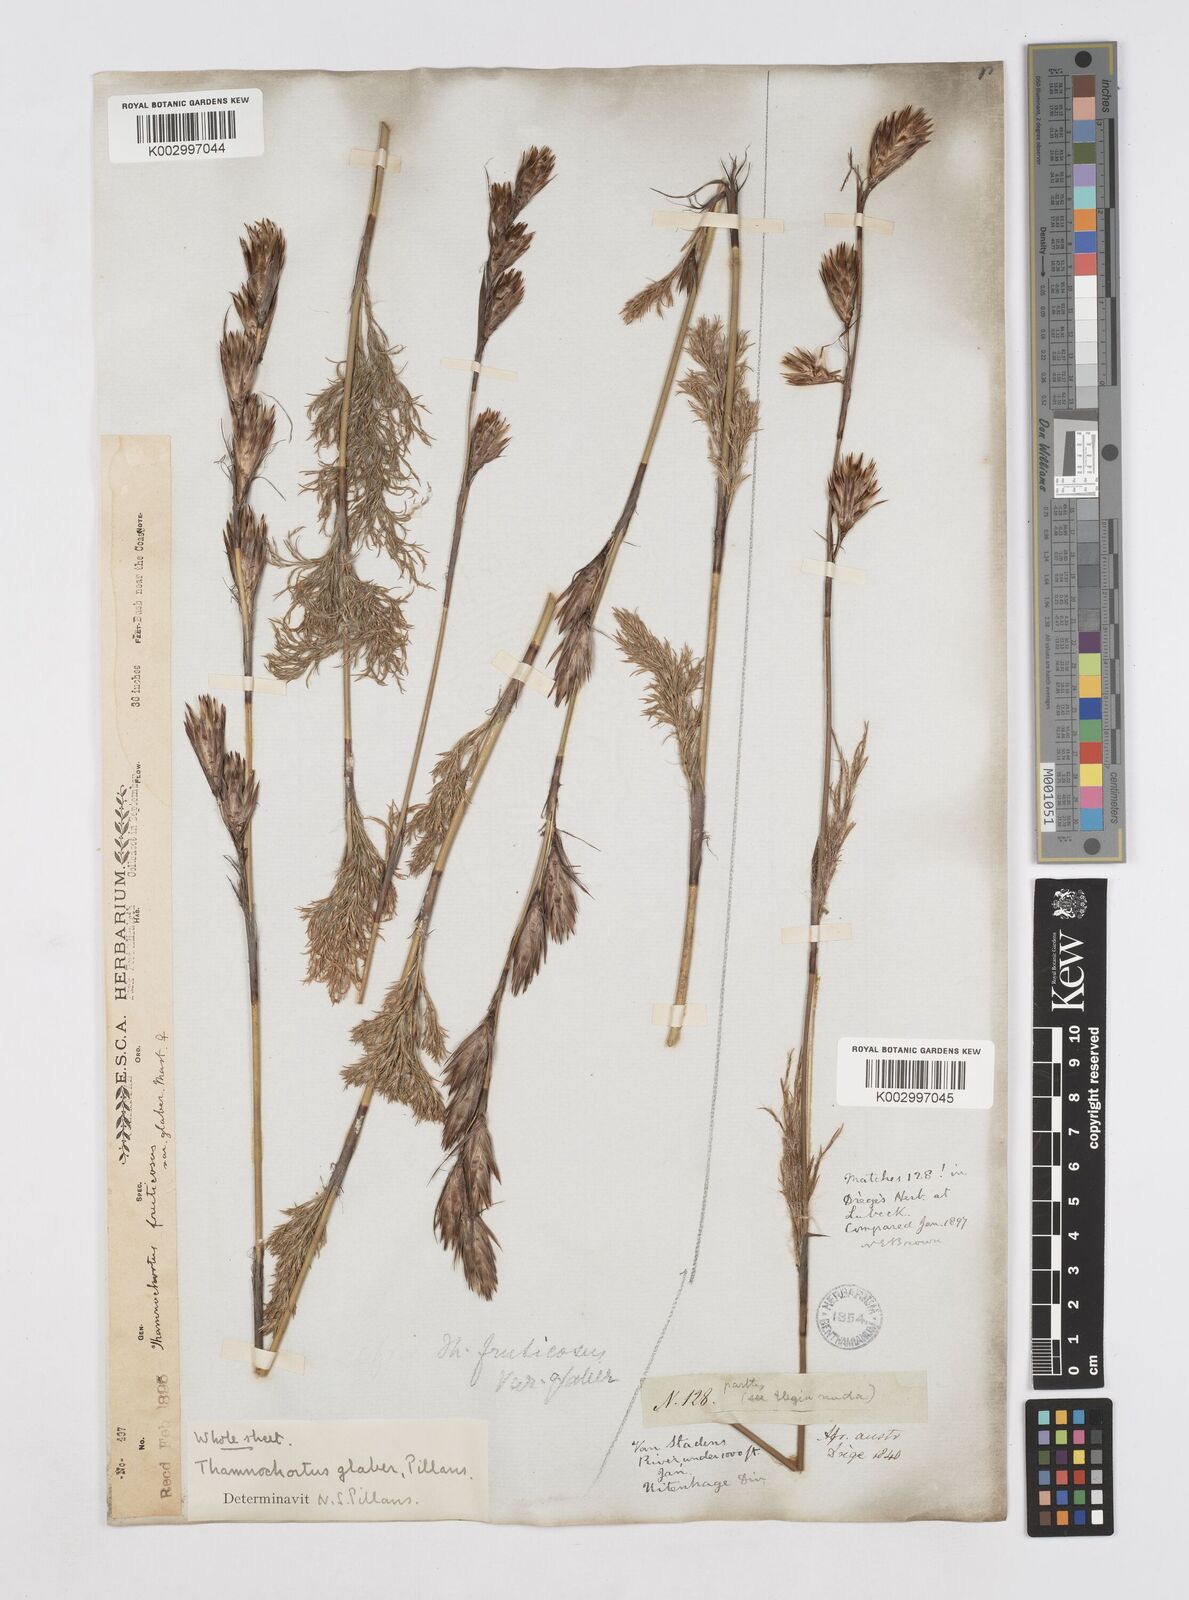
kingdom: Plantae
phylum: Tracheophyta
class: Liliopsida
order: Poales
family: Restionaceae
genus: Thamnochortus
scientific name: Thamnochortus glaber
